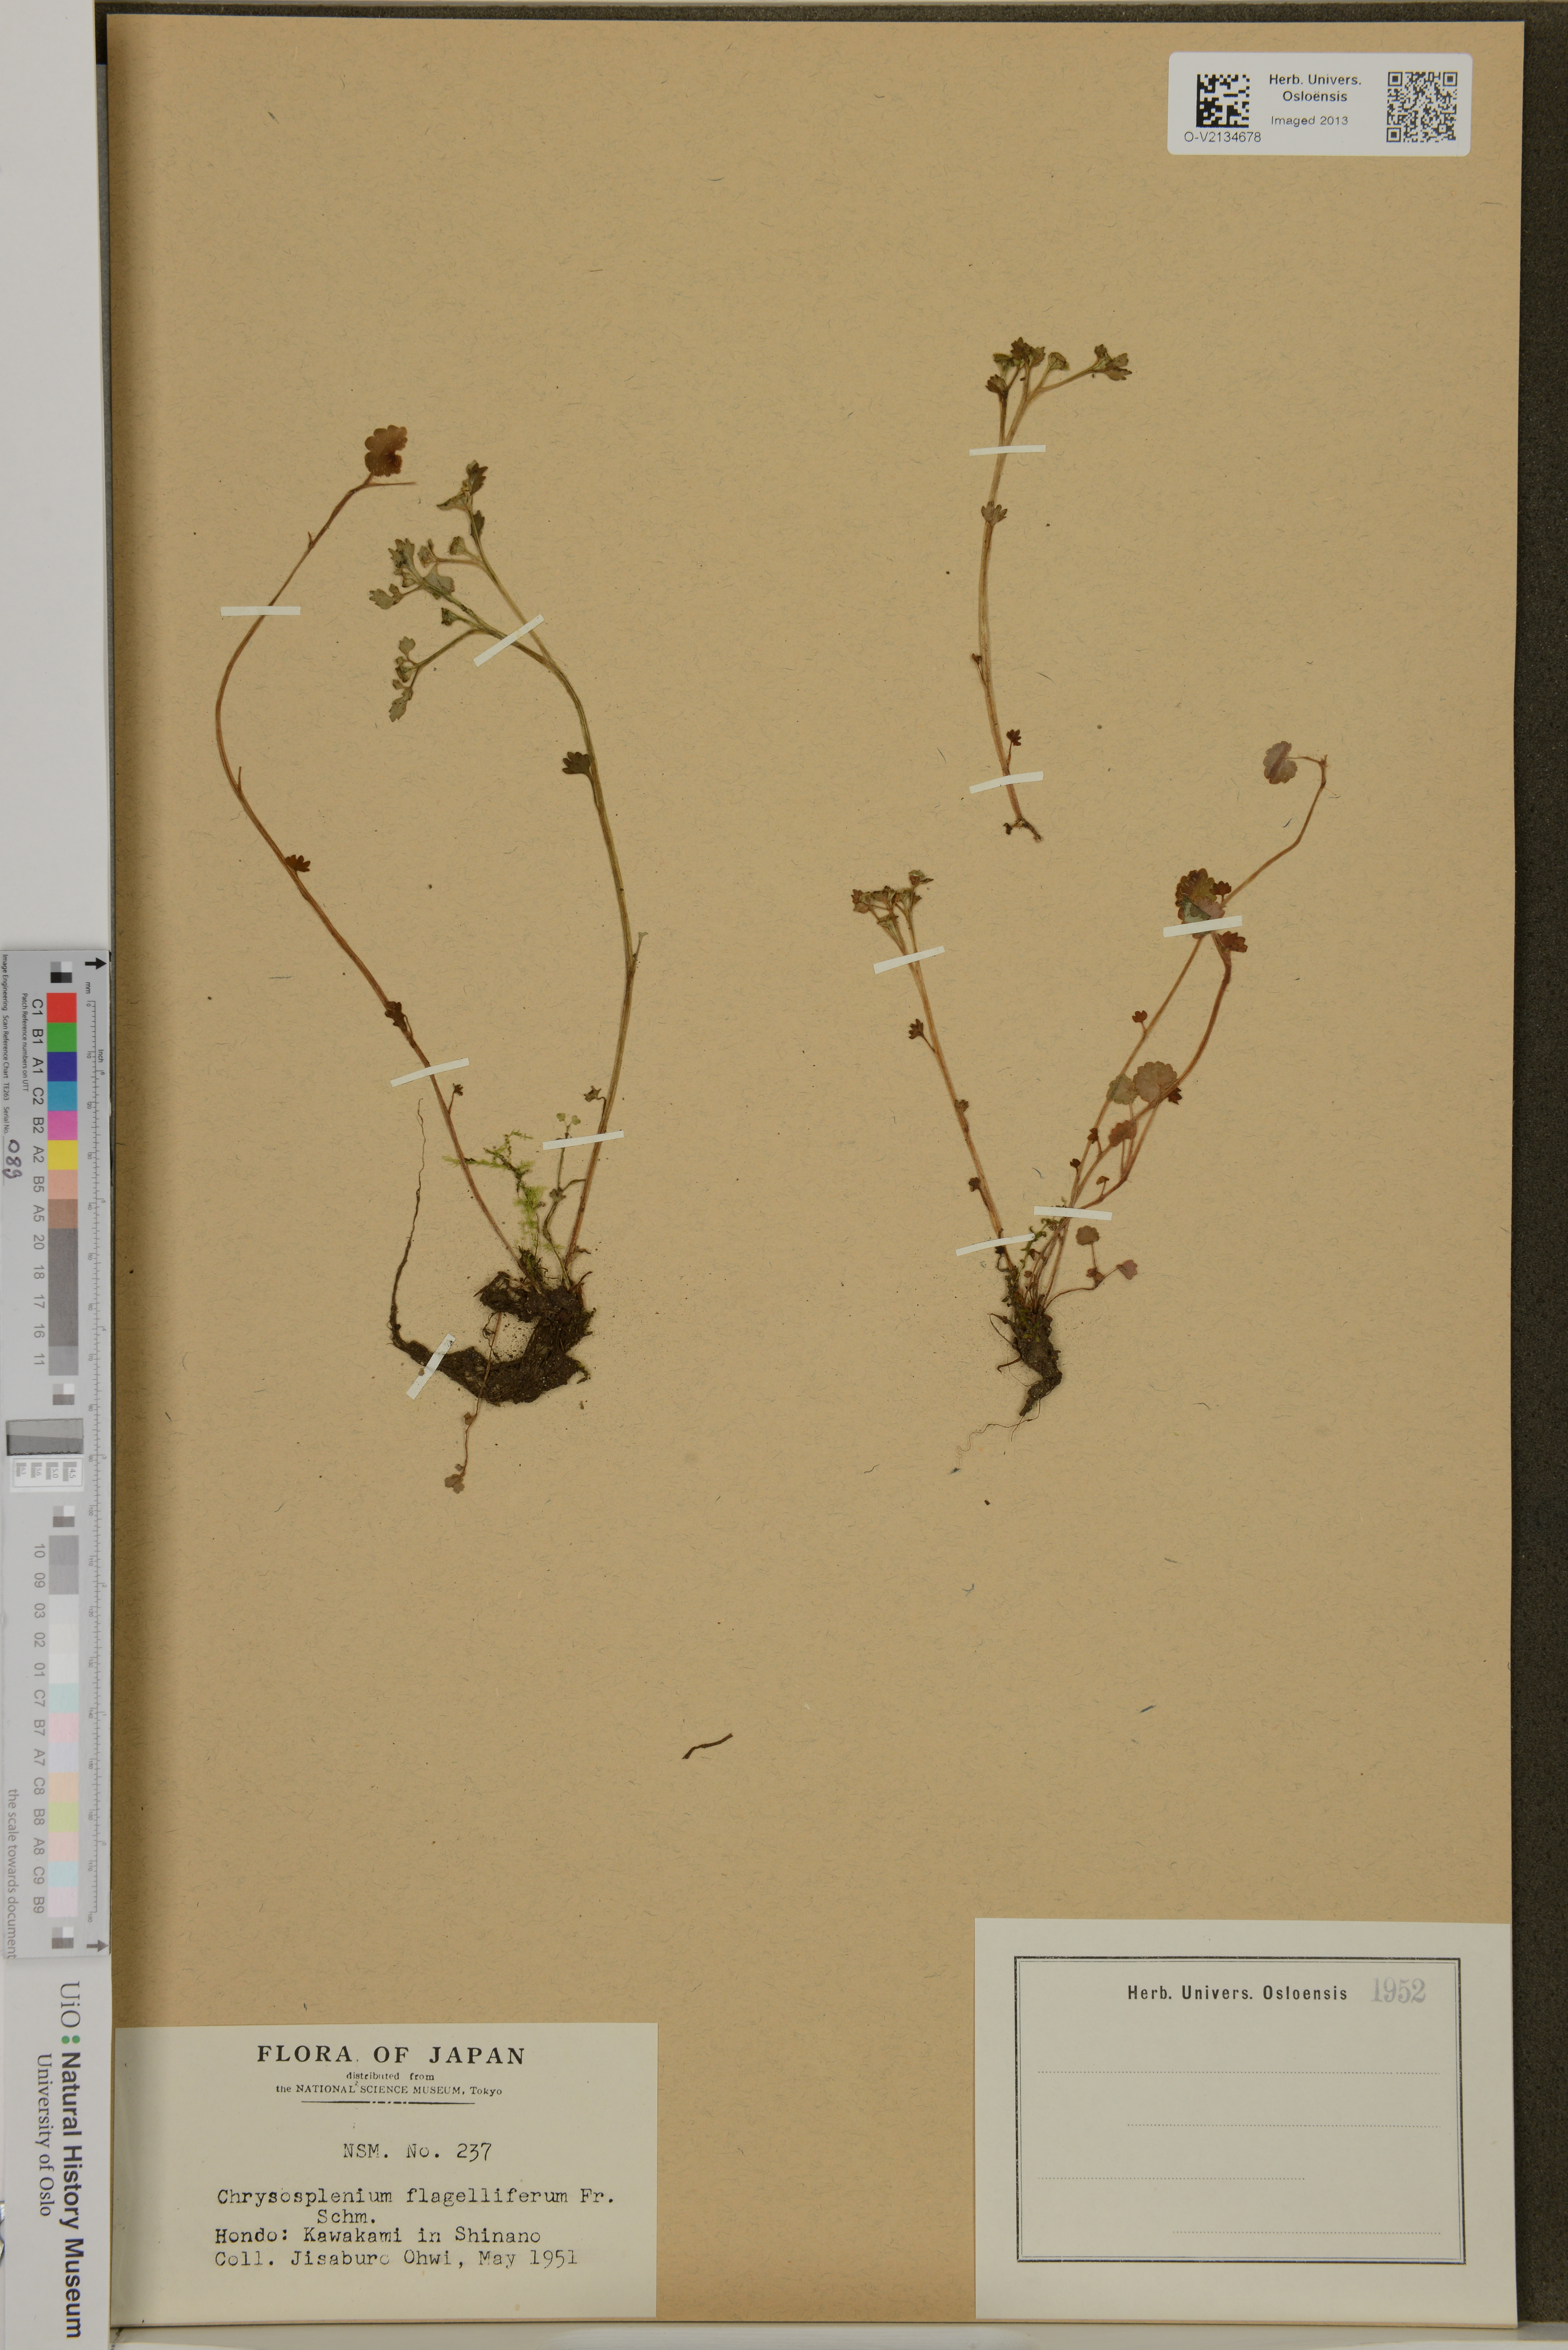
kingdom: Plantae
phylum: Tracheophyta
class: Magnoliopsida
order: Saxifragales
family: Saxifragaceae
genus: Chrysosplenium
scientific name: Chrysosplenium flagelliferum
